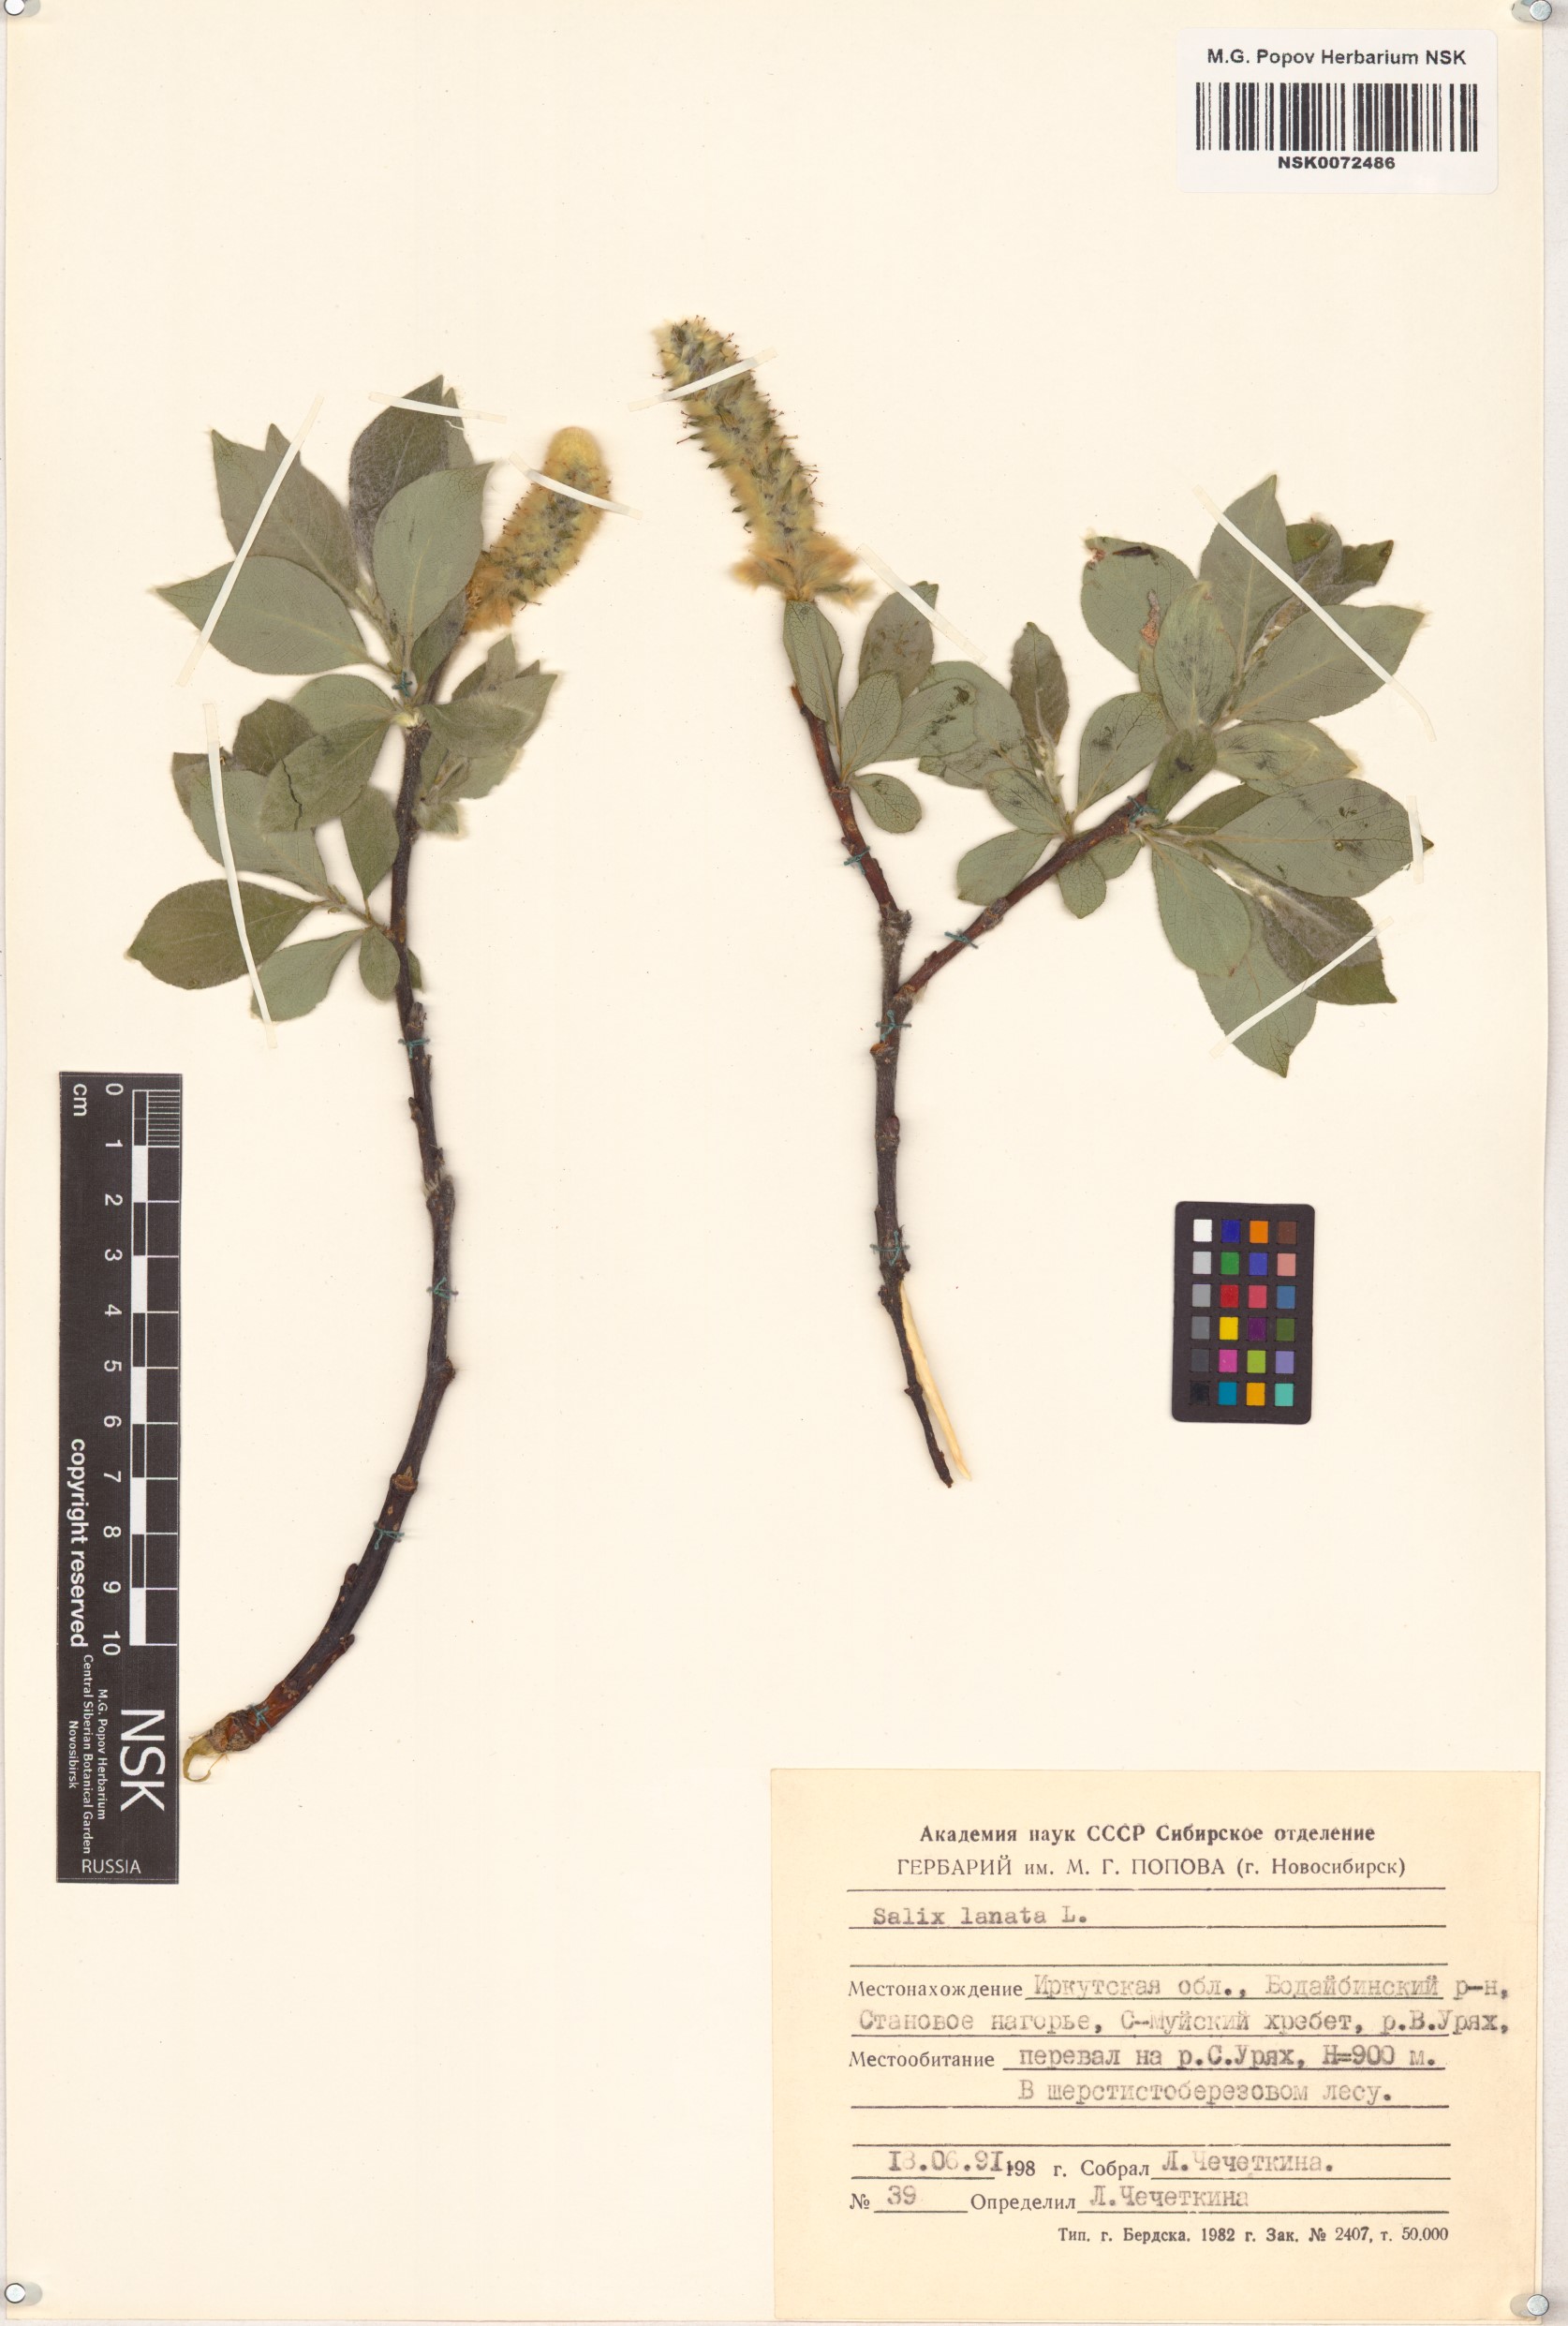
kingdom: Plantae
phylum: Tracheophyta
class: Magnoliopsida
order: Malpighiales
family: Salicaceae
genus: Salix
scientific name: Salix lanata
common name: Woolly willow
